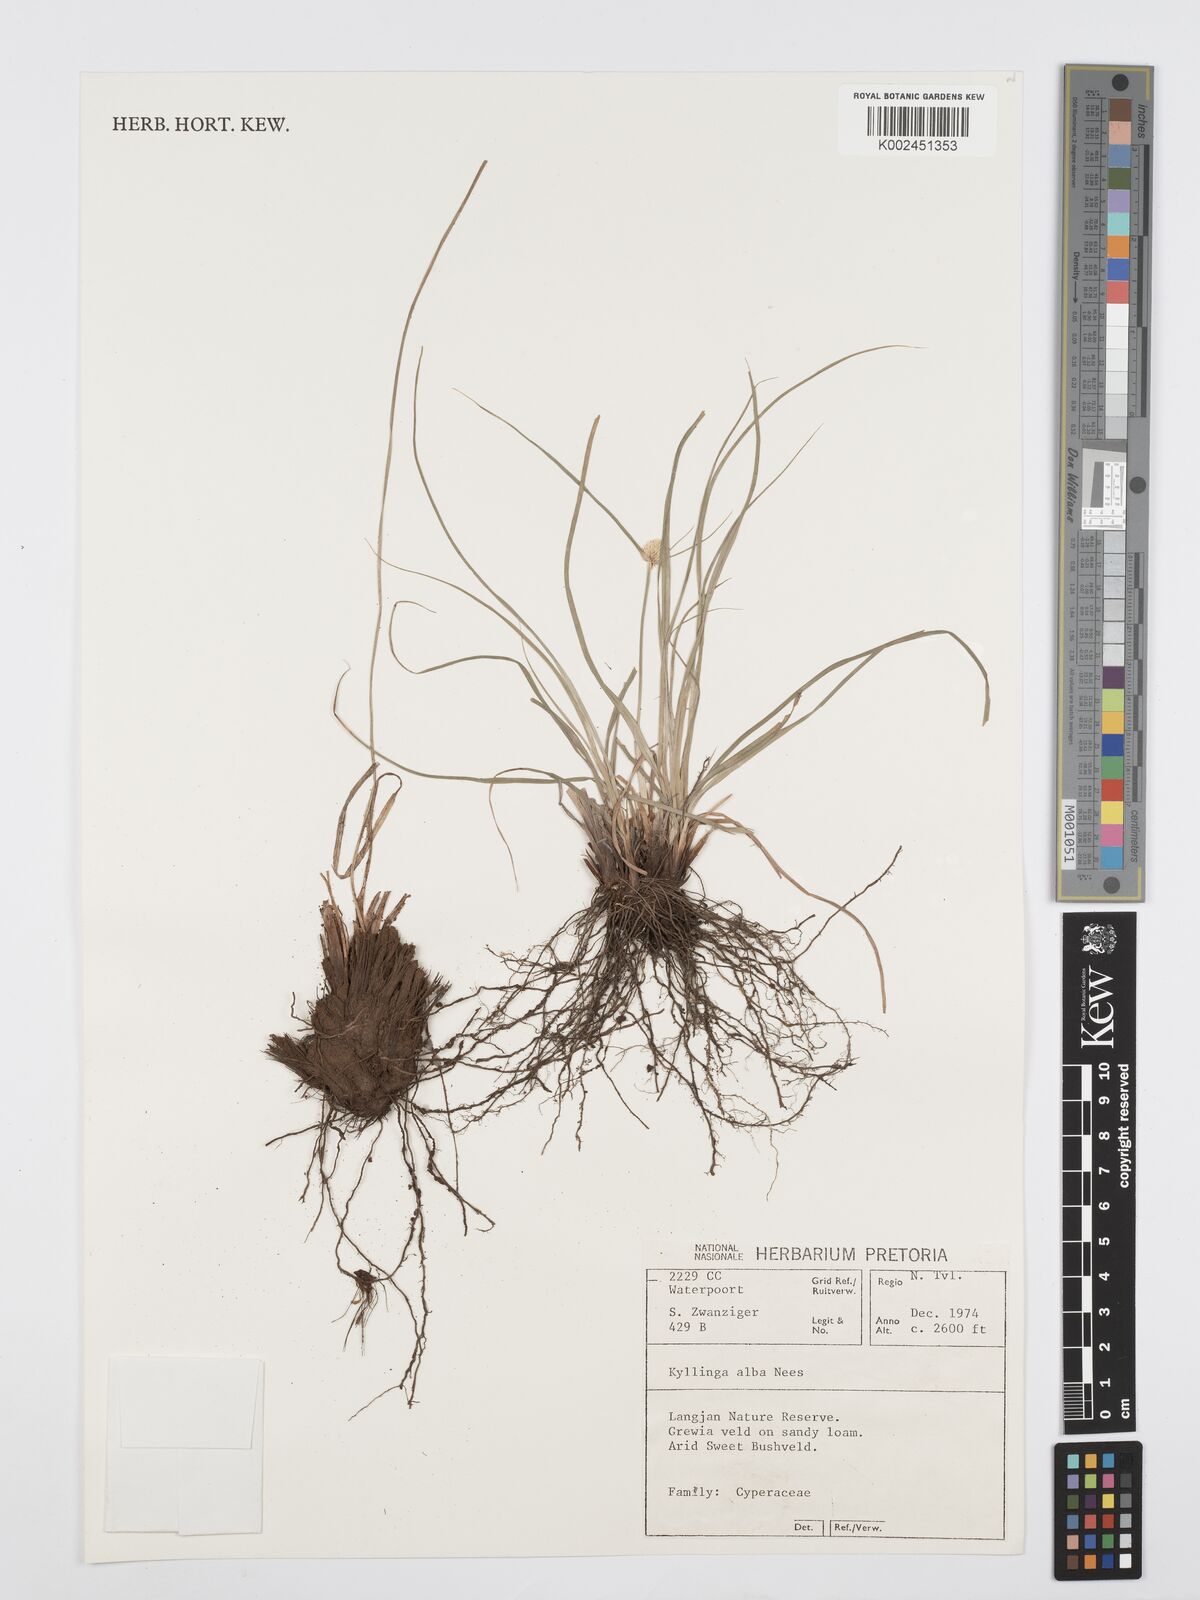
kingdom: Plantae
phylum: Tracheophyta
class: Liliopsida
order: Poales
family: Cyperaceae
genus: Cyperus
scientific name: Cyperus
